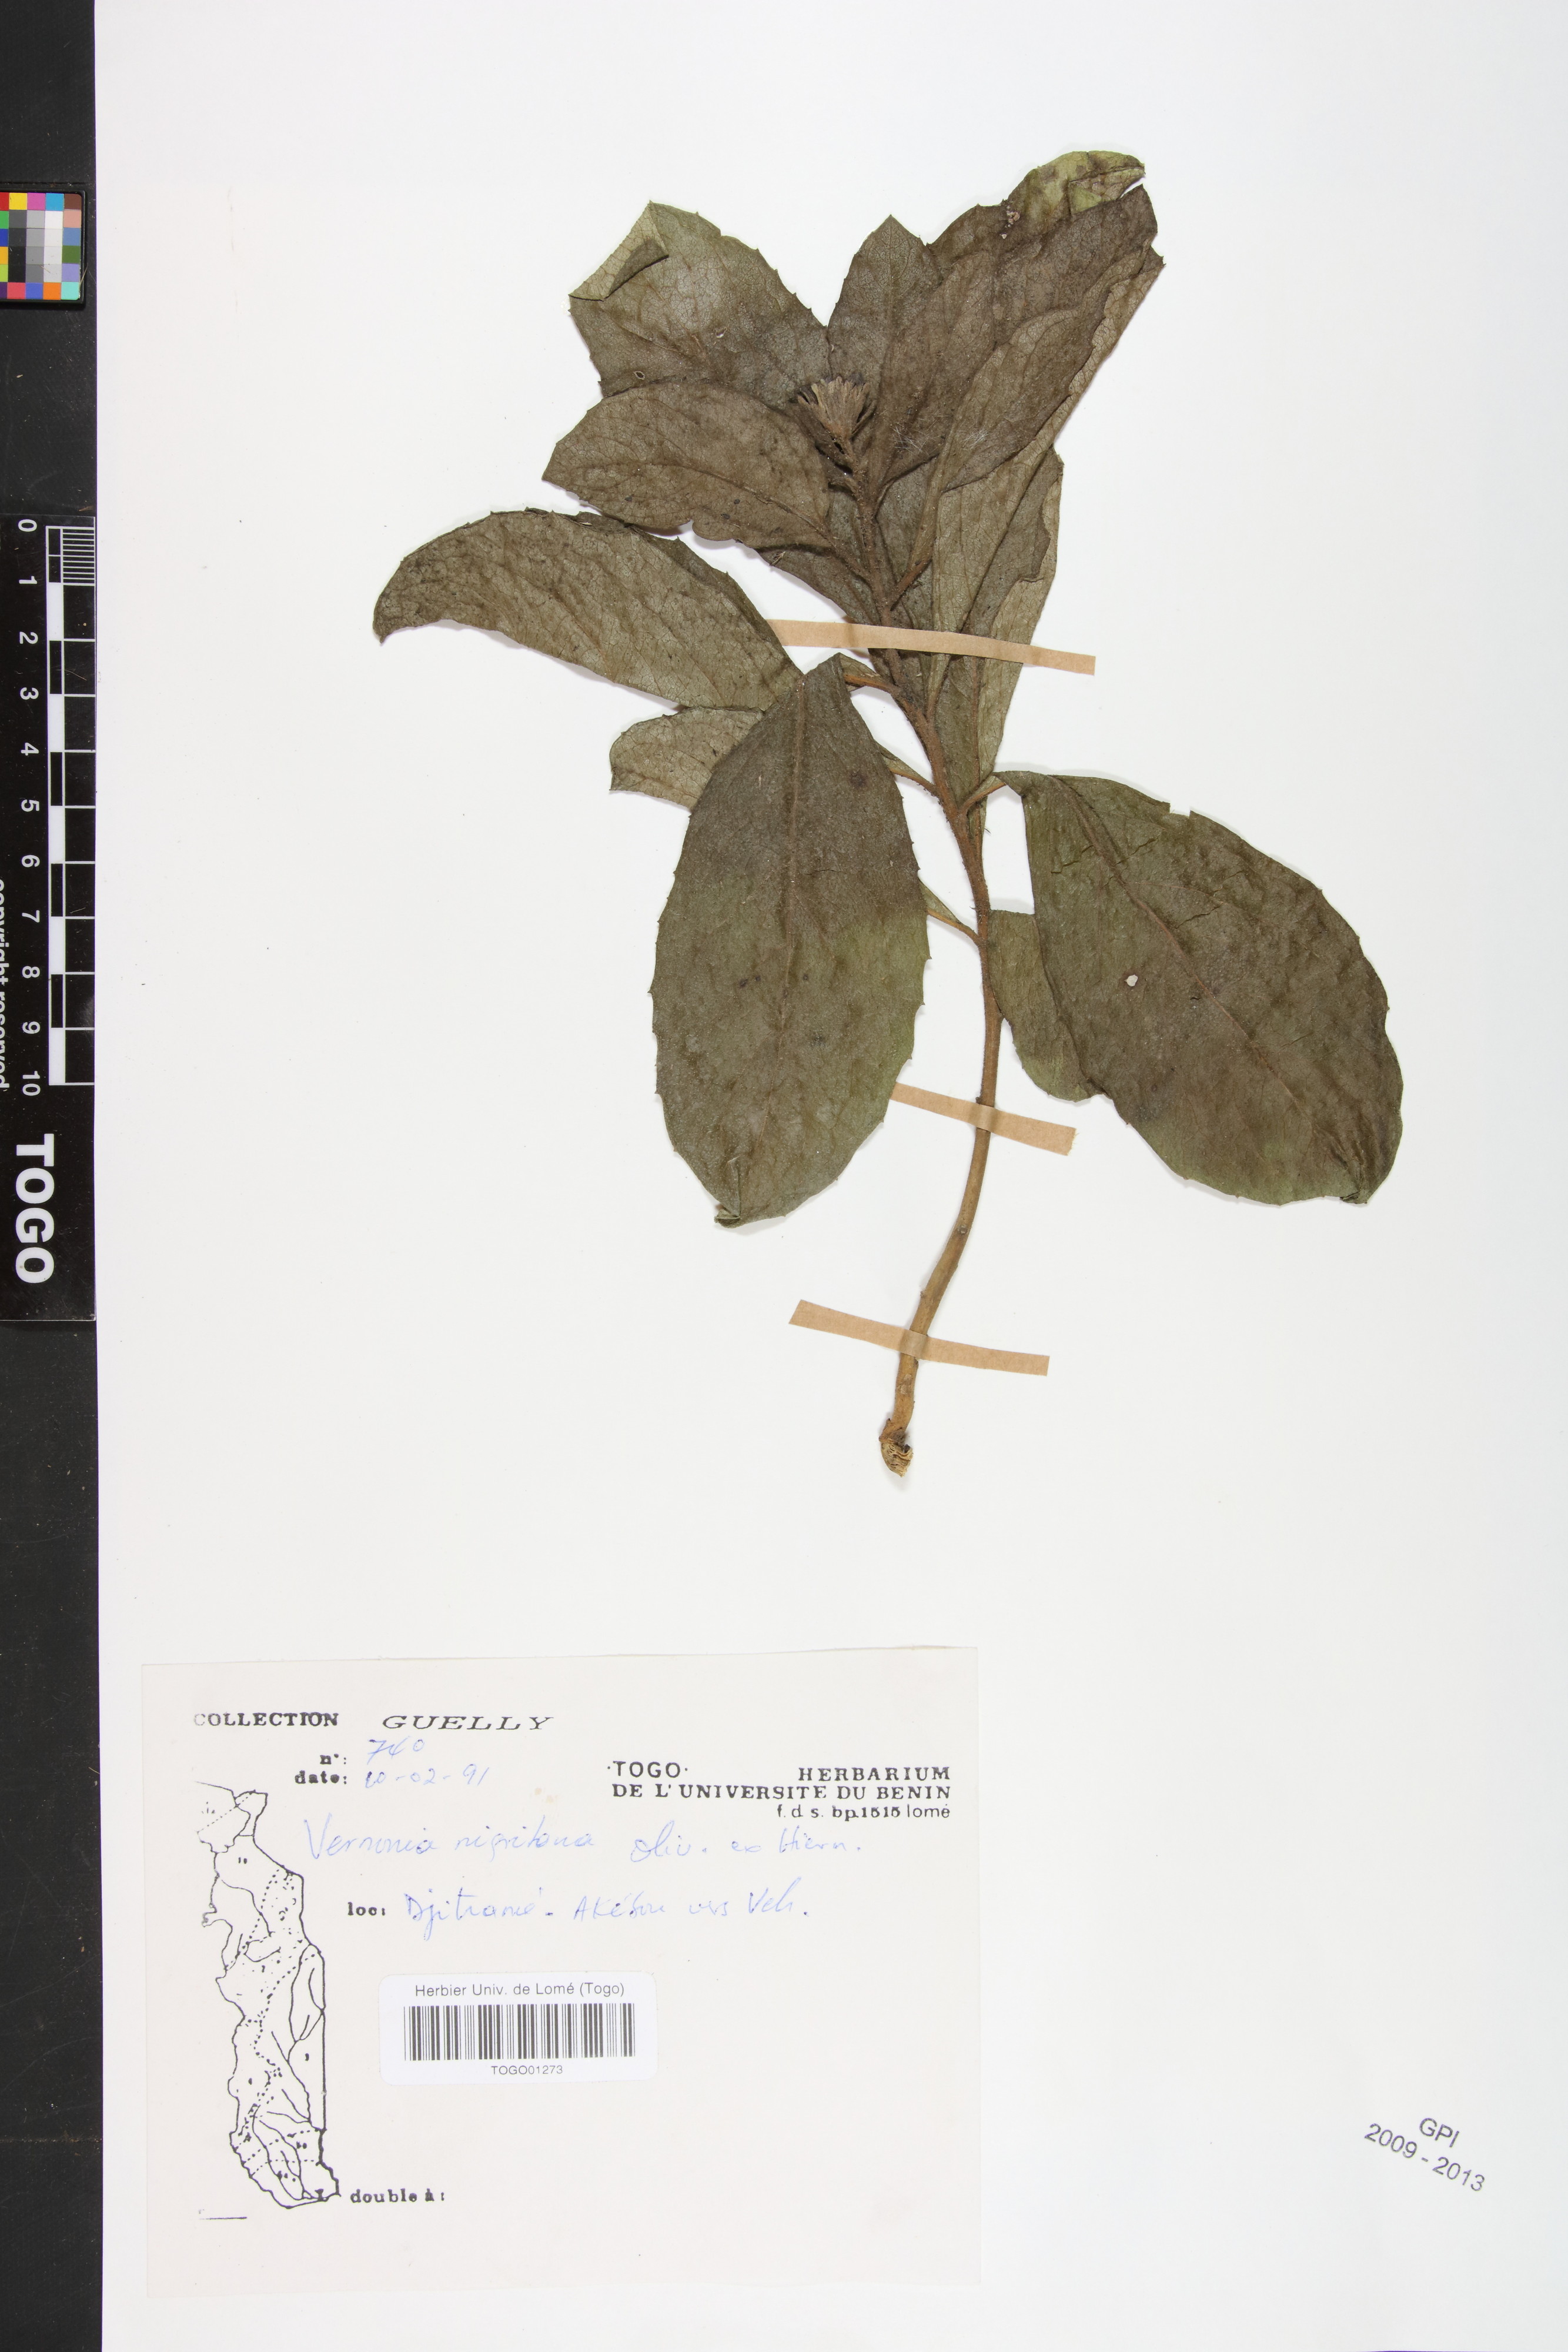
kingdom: Plantae
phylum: Tracheophyta
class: Magnoliopsida
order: Asterales
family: Asteraceae
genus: Linzia
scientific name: Linzia nigritiana
